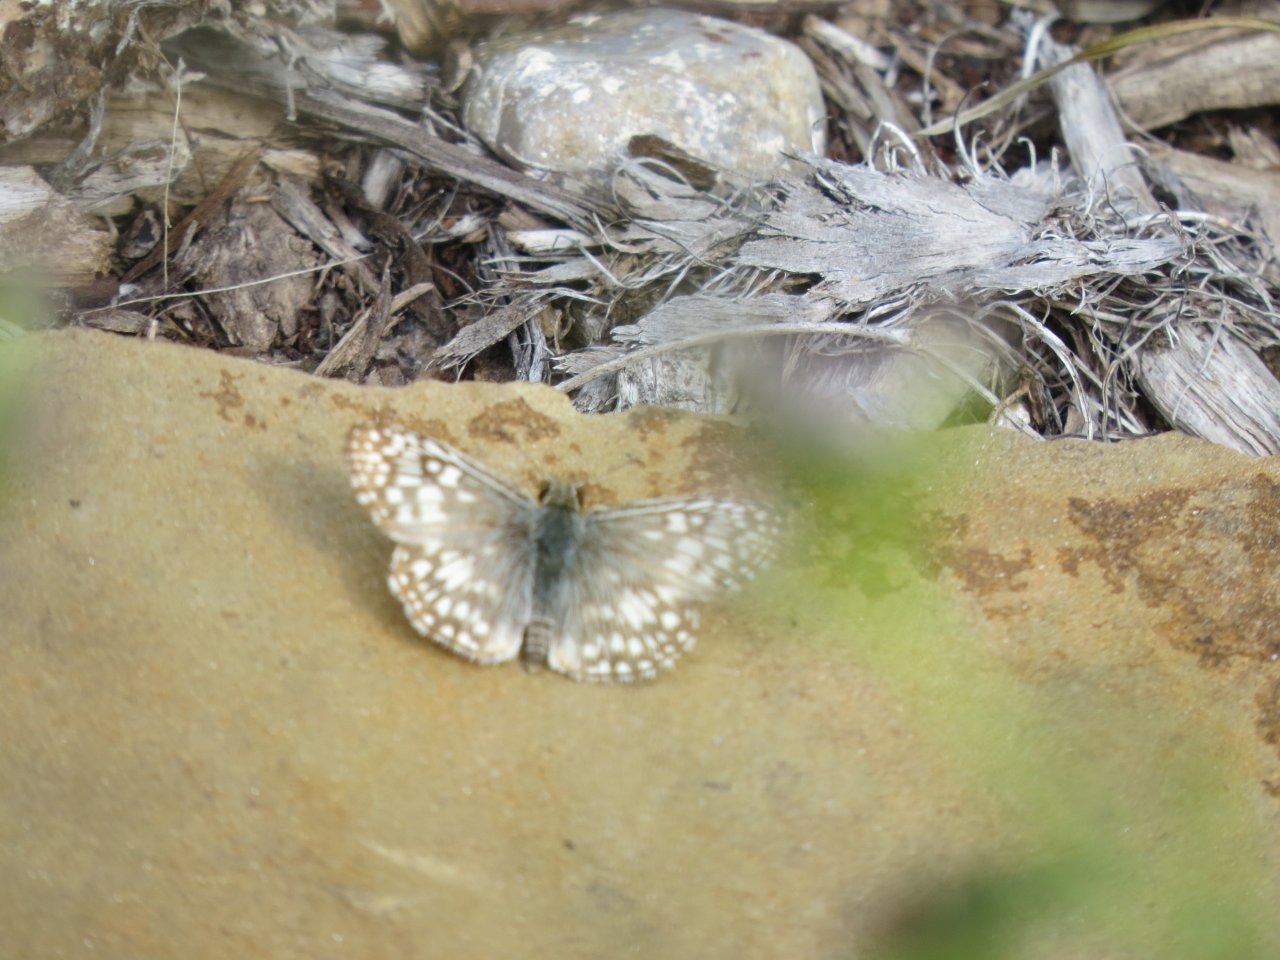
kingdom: Animalia
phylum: Arthropoda
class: Insecta
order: Lepidoptera
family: Hesperiidae
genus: Pyrgus
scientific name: Pyrgus communis
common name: Common Checkered-Skipper
